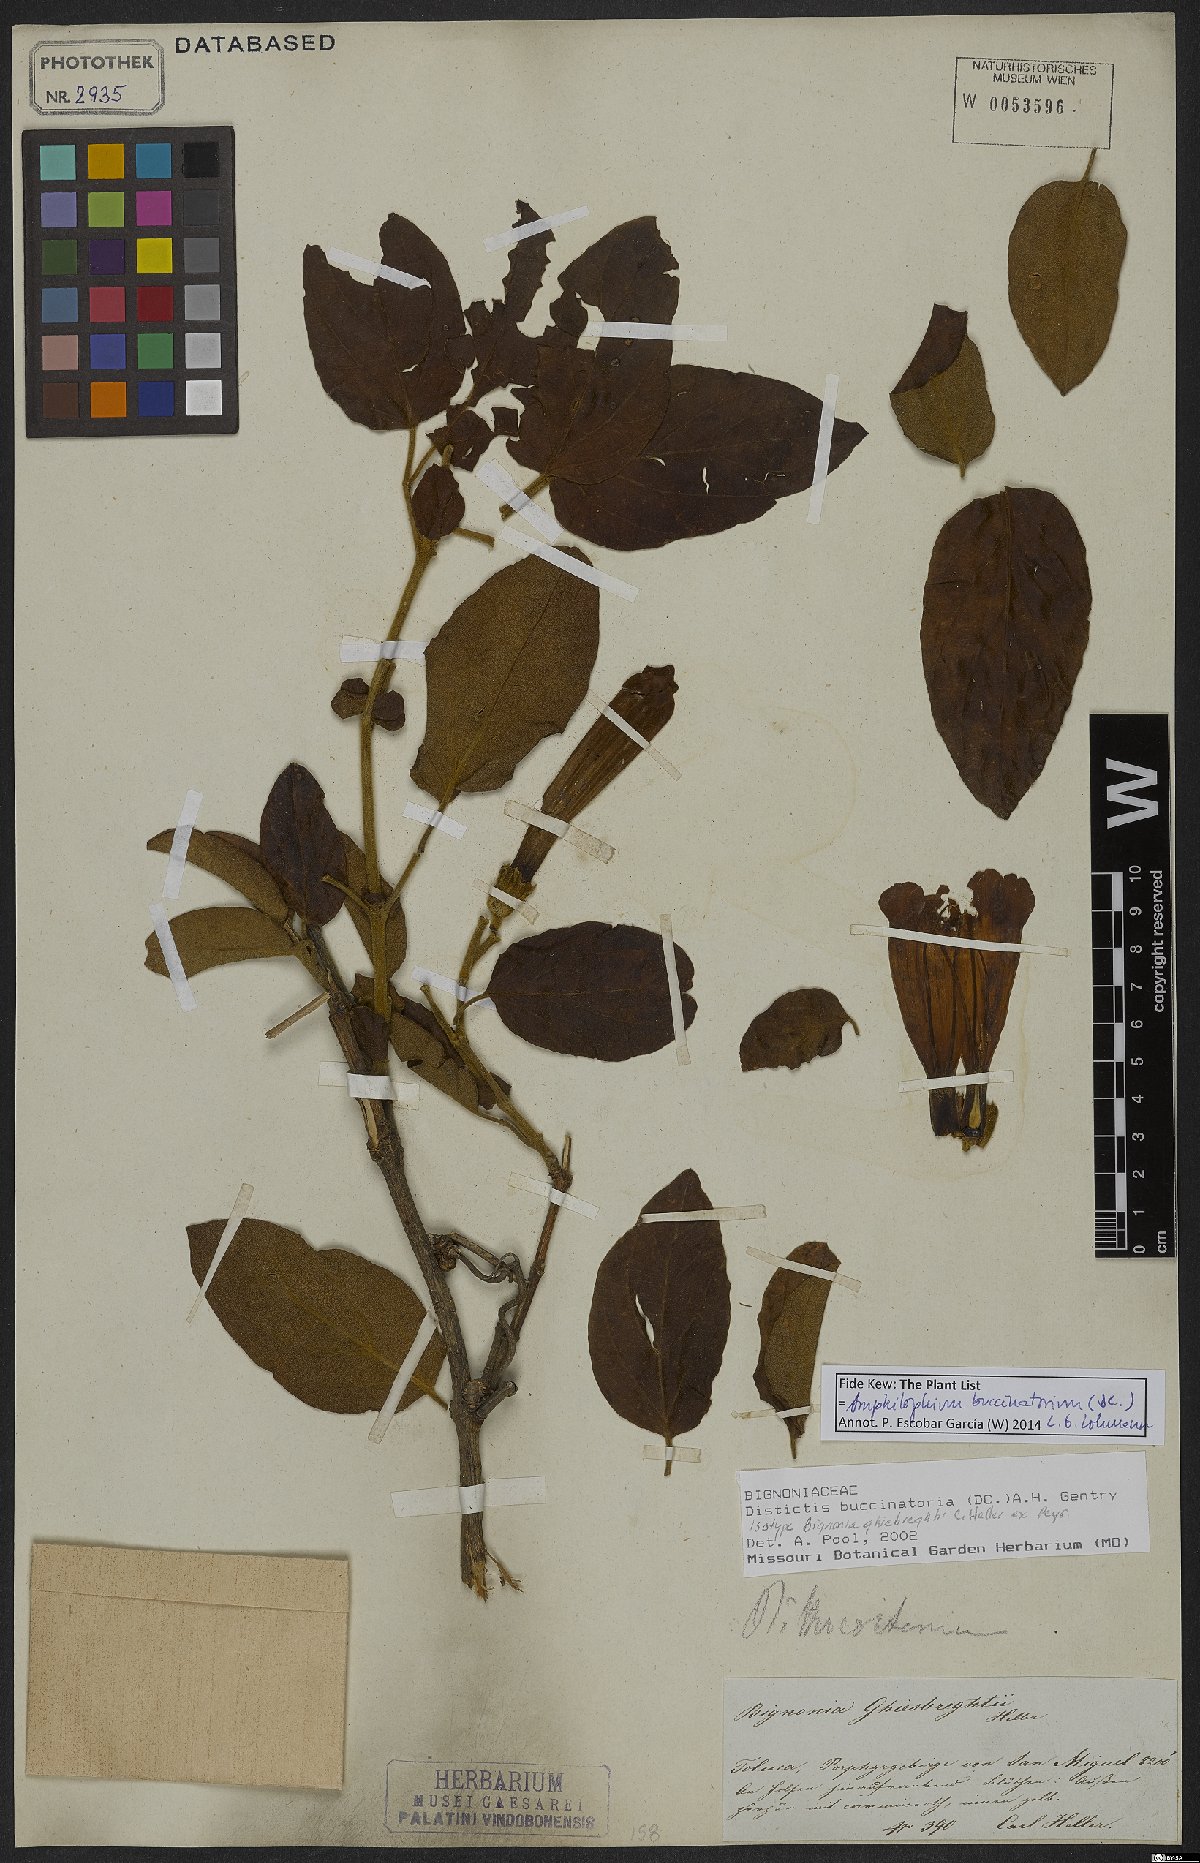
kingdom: Plantae
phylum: Tracheophyta
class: Magnoliopsida
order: Lamiales
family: Bignoniaceae
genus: Amphilophium
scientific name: Amphilophium buccinatorium
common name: Mexican blood-flower
